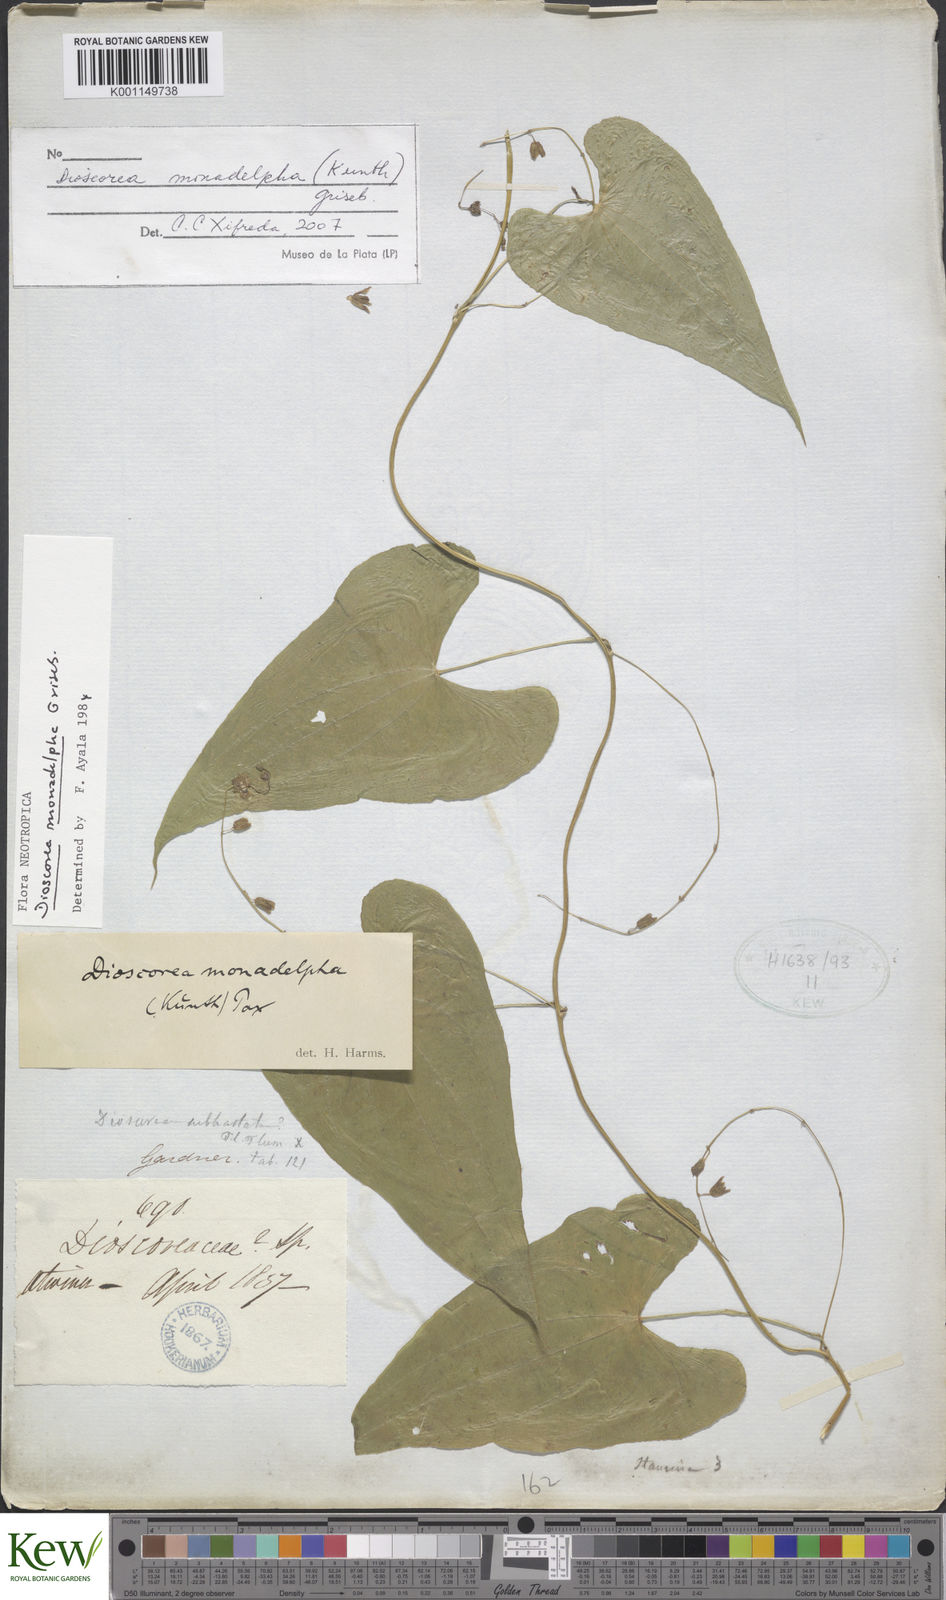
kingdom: Plantae
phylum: Tracheophyta
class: Liliopsida
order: Dioscoreales
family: Dioscoreaceae
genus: Dioscorea
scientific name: Dioscorea coronata
